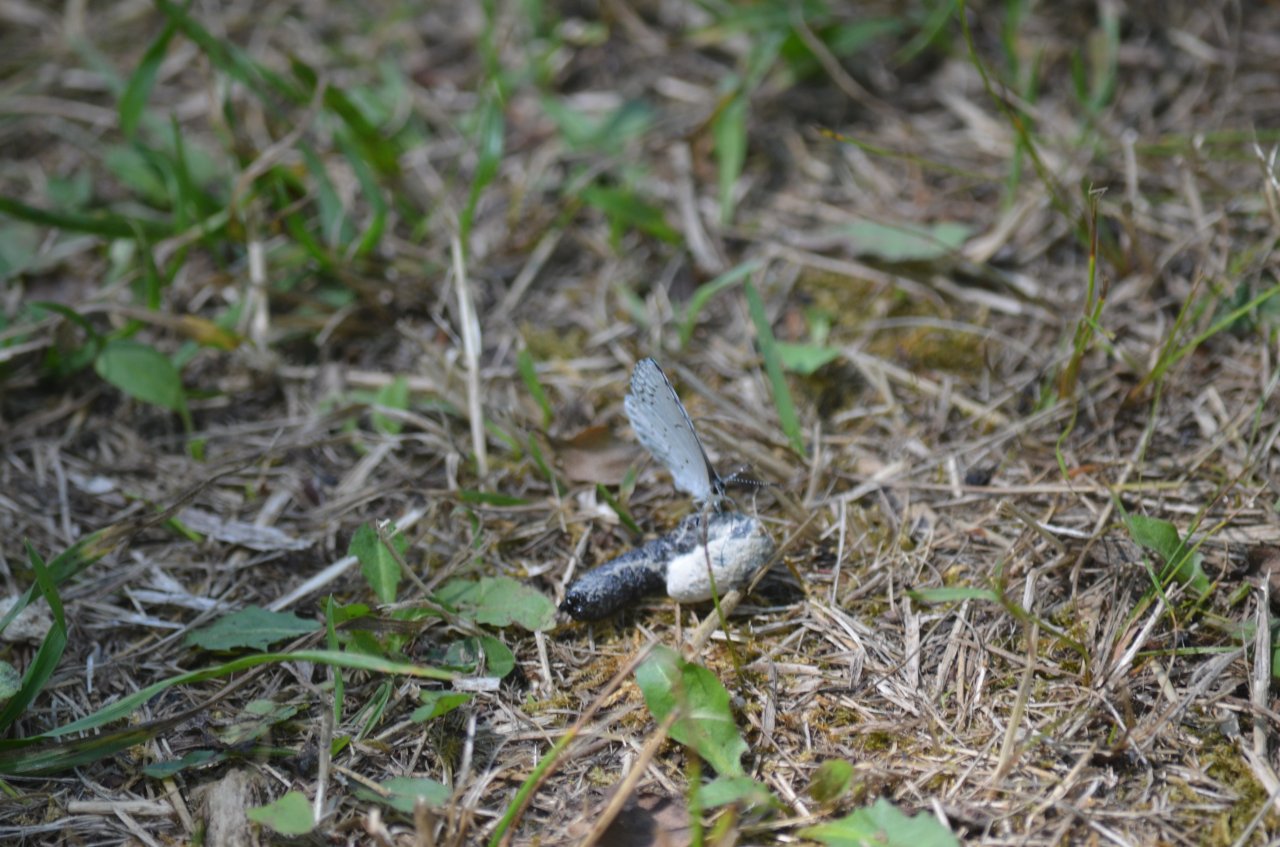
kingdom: Animalia
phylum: Arthropoda
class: Insecta
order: Lepidoptera
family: Lycaenidae
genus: Celastrina
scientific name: Celastrina
